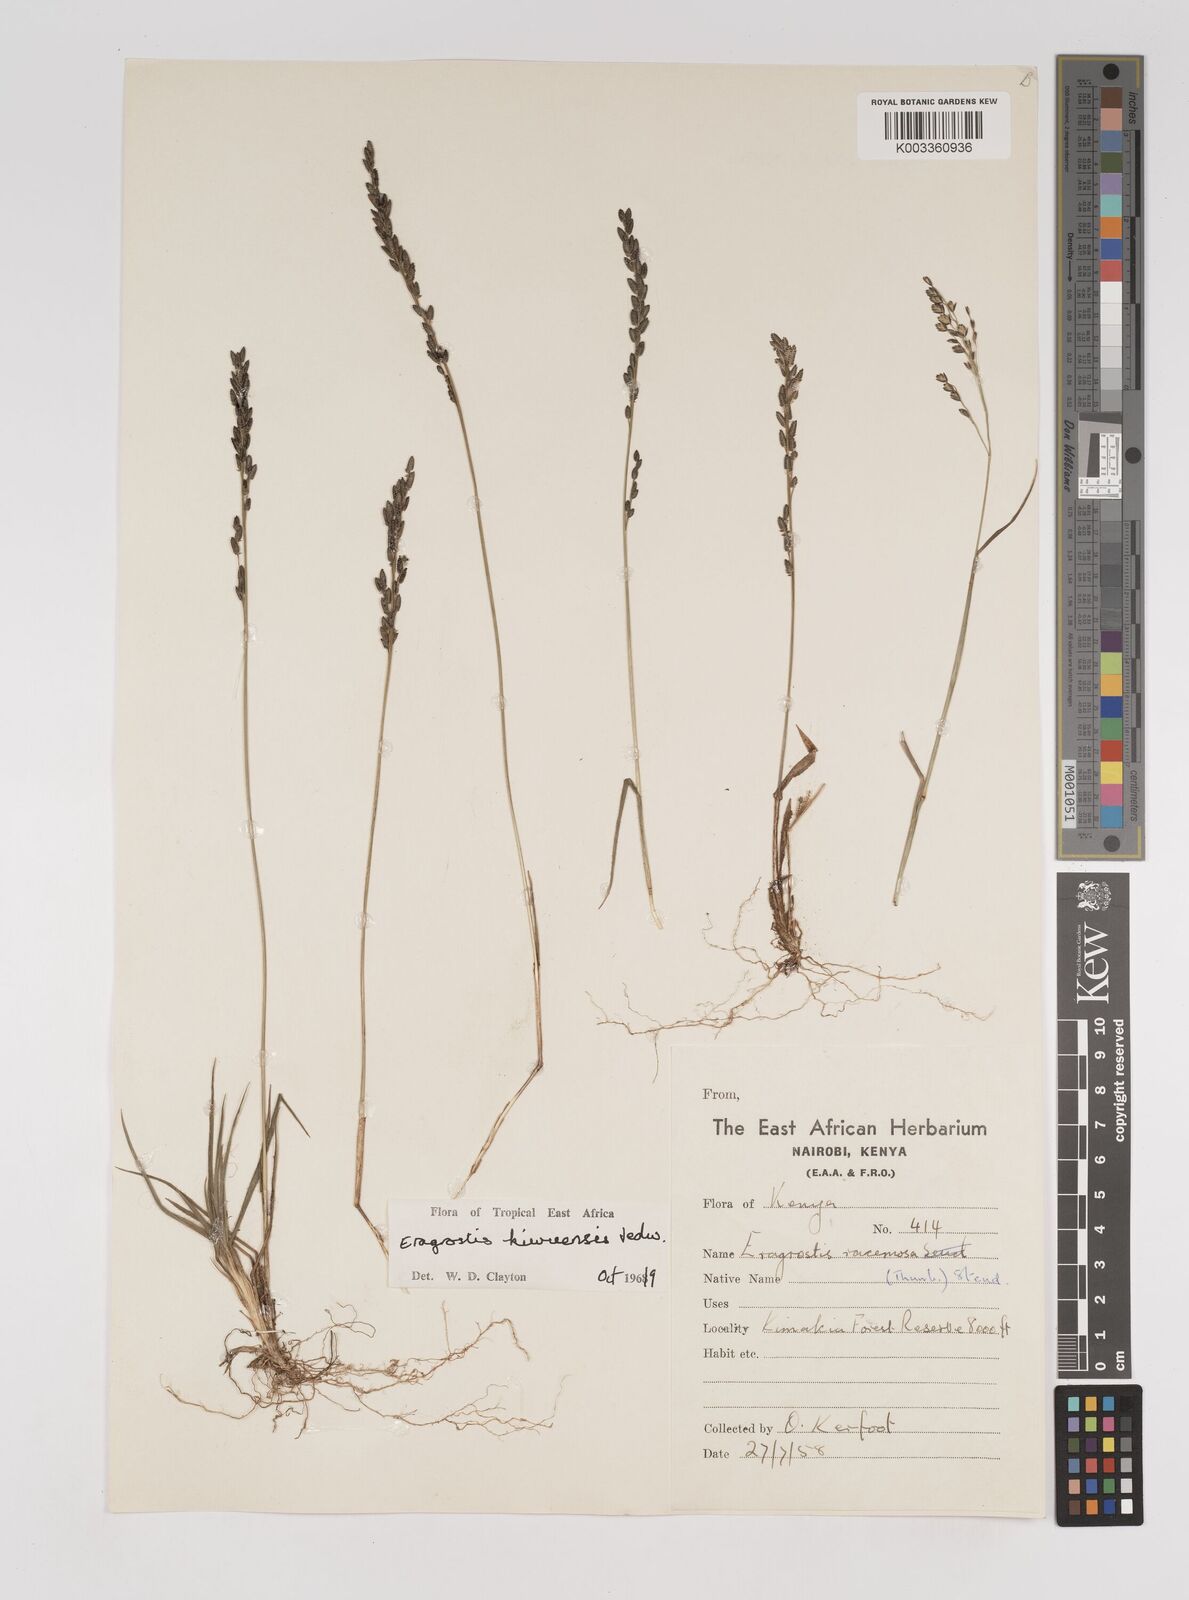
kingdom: Plantae
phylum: Tracheophyta
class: Liliopsida
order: Poales
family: Poaceae
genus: Eragrostis
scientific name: Eragrostis schweinfurthii
